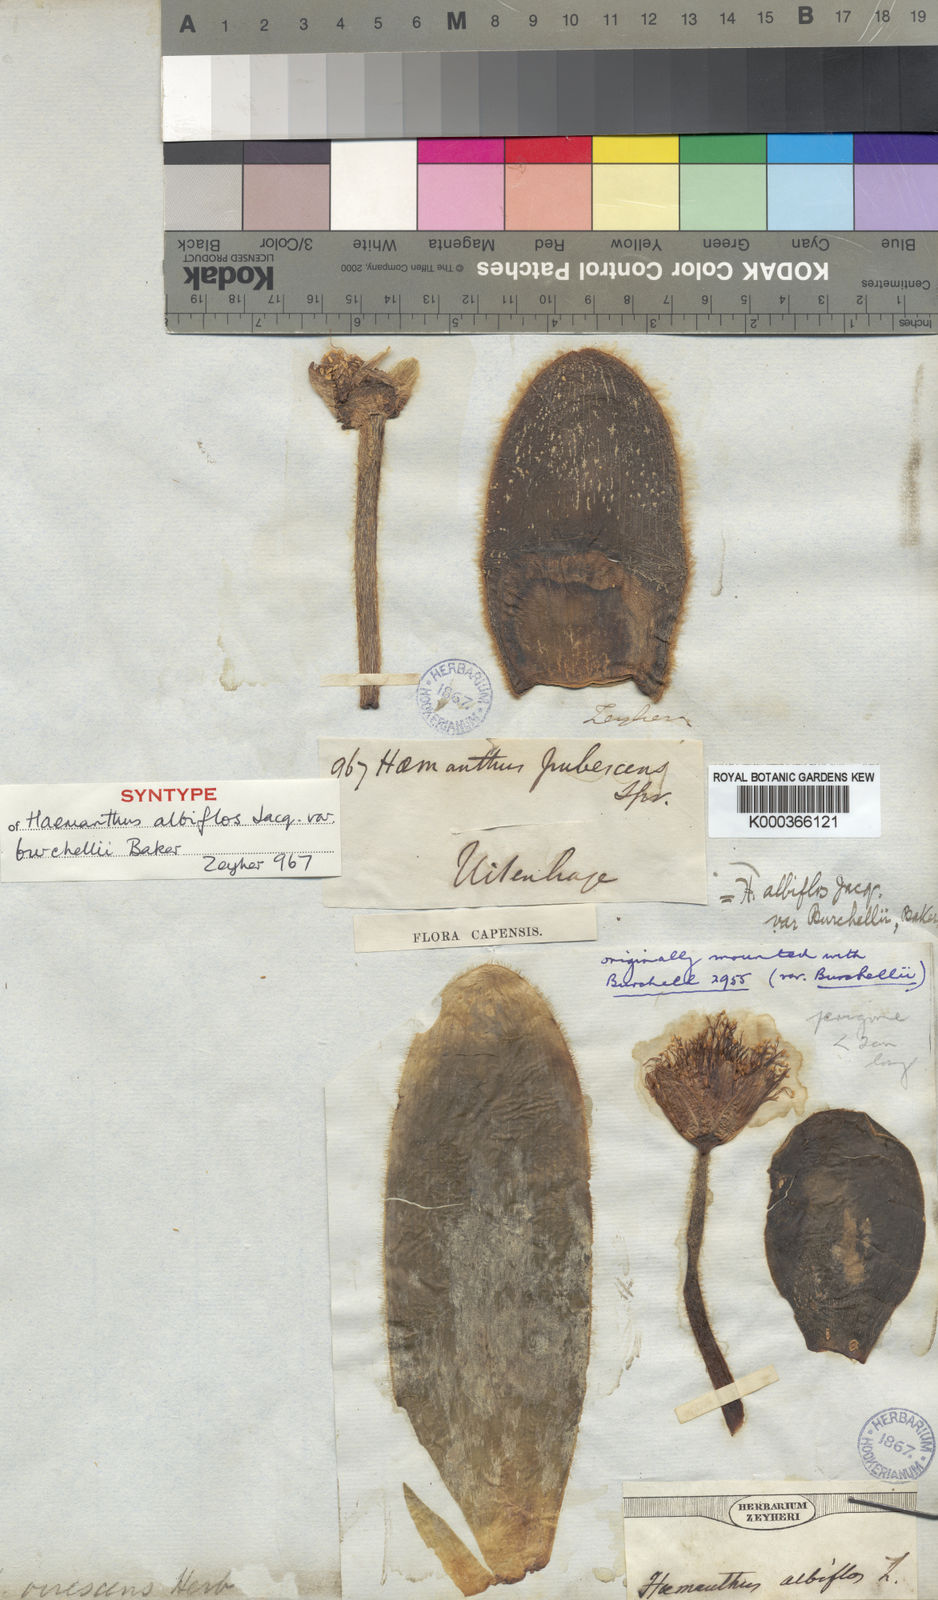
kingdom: Plantae
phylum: Tracheophyta
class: Liliopsida
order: Asparagales
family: Amaryllidaceae
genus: Haemanthus
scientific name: Haemanthus albiflos
